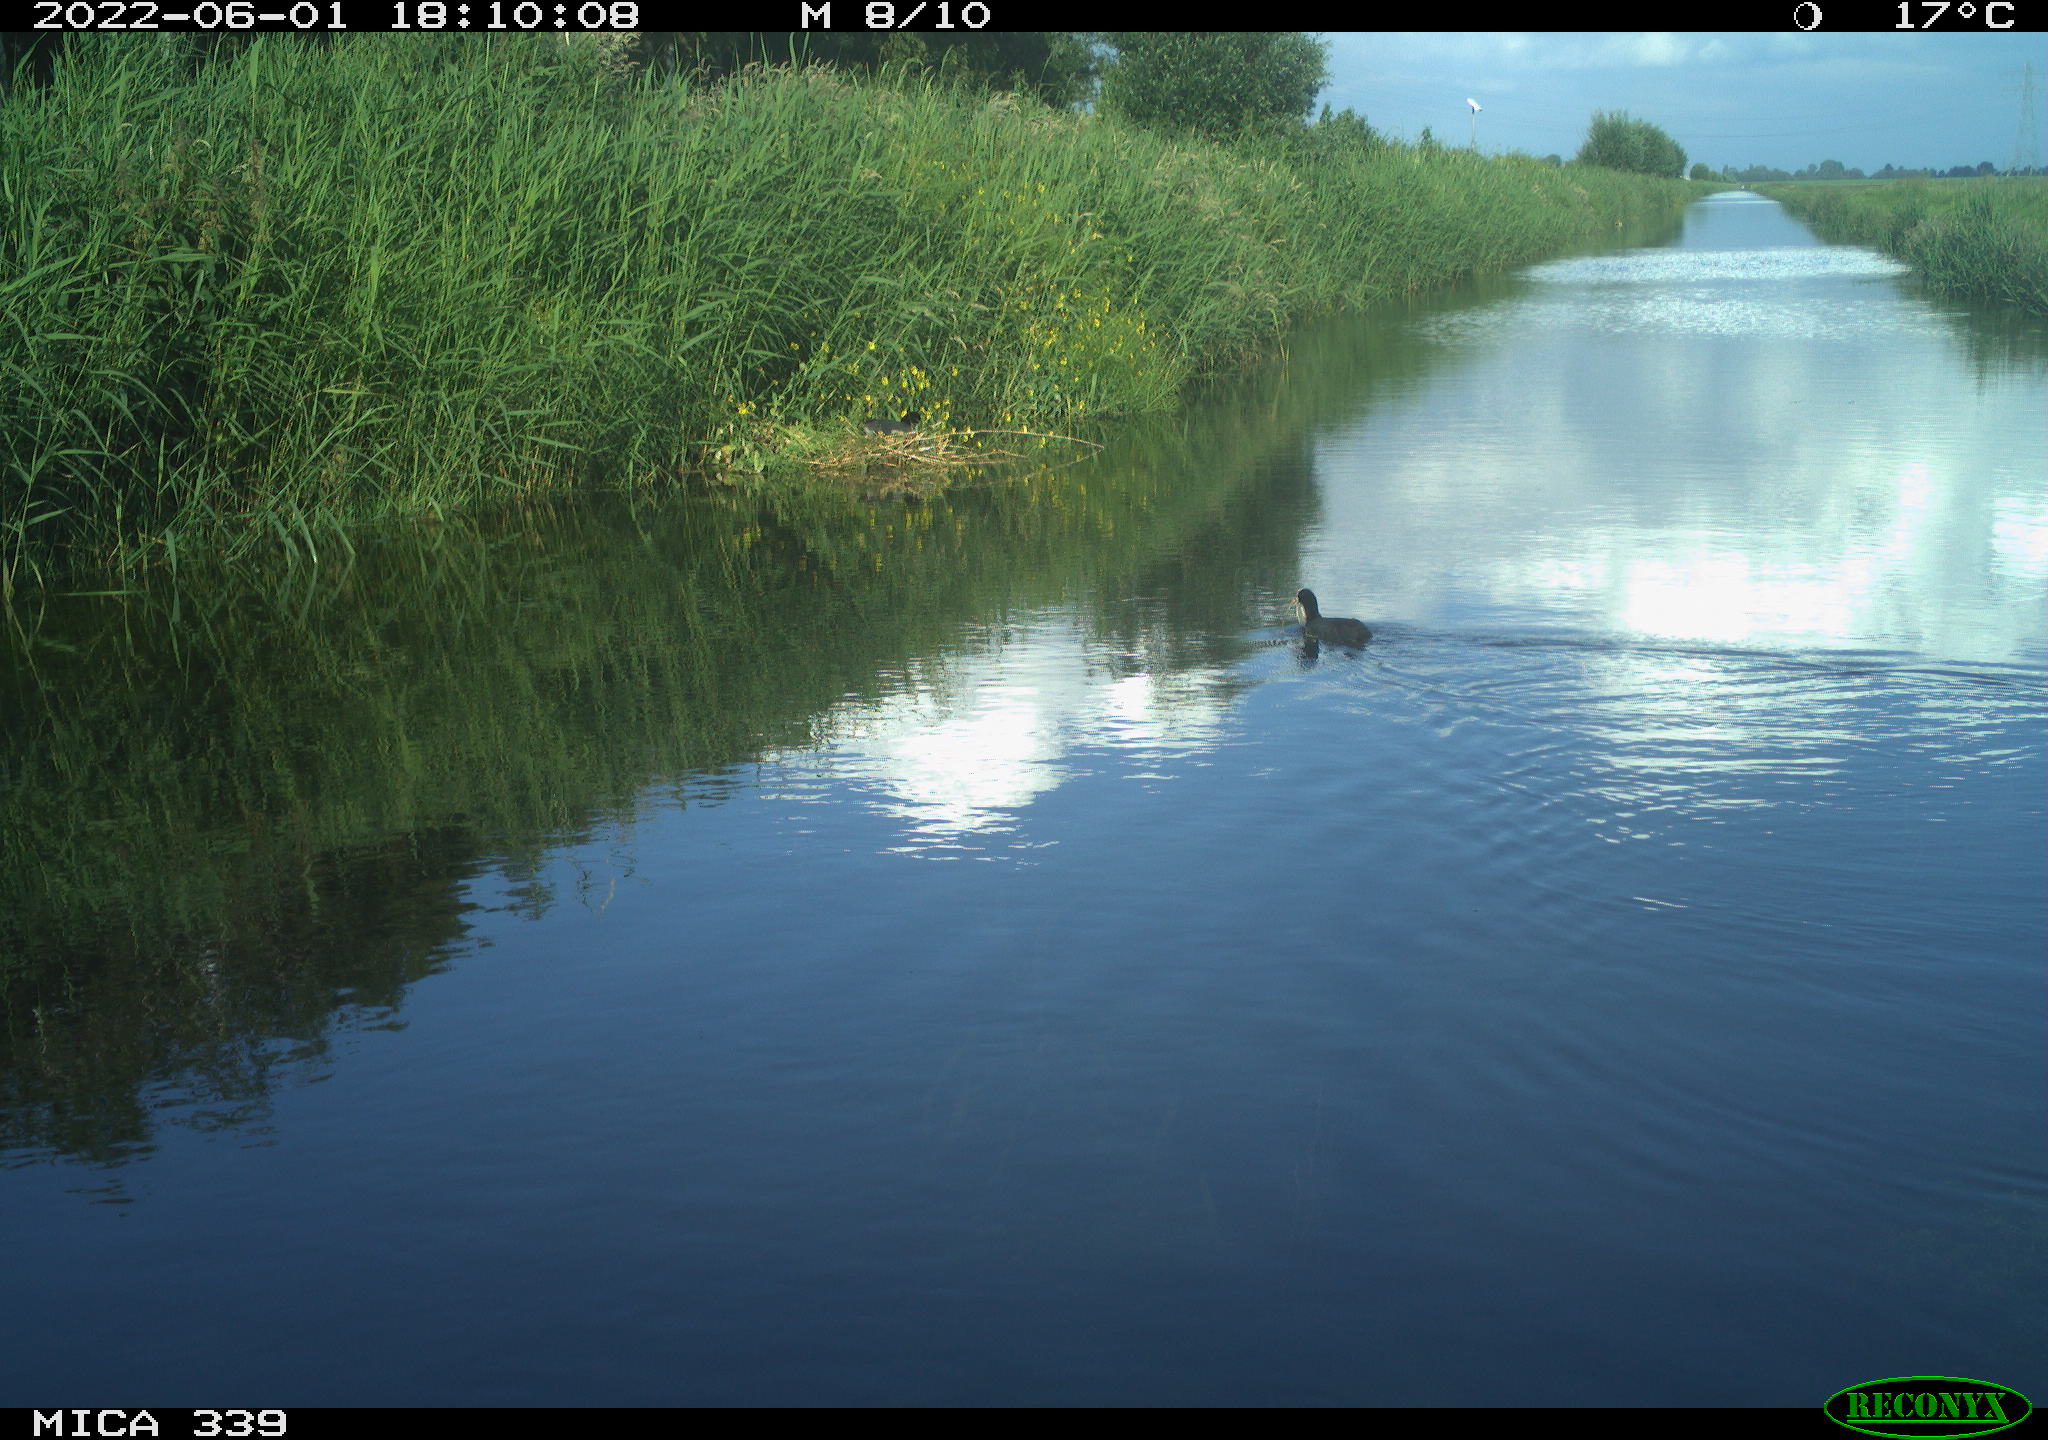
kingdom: Animalia
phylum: Chordata
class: Aves
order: Gruiformes
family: Rallidae
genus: Fulica
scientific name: Fulica atra
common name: Eurasian coot
